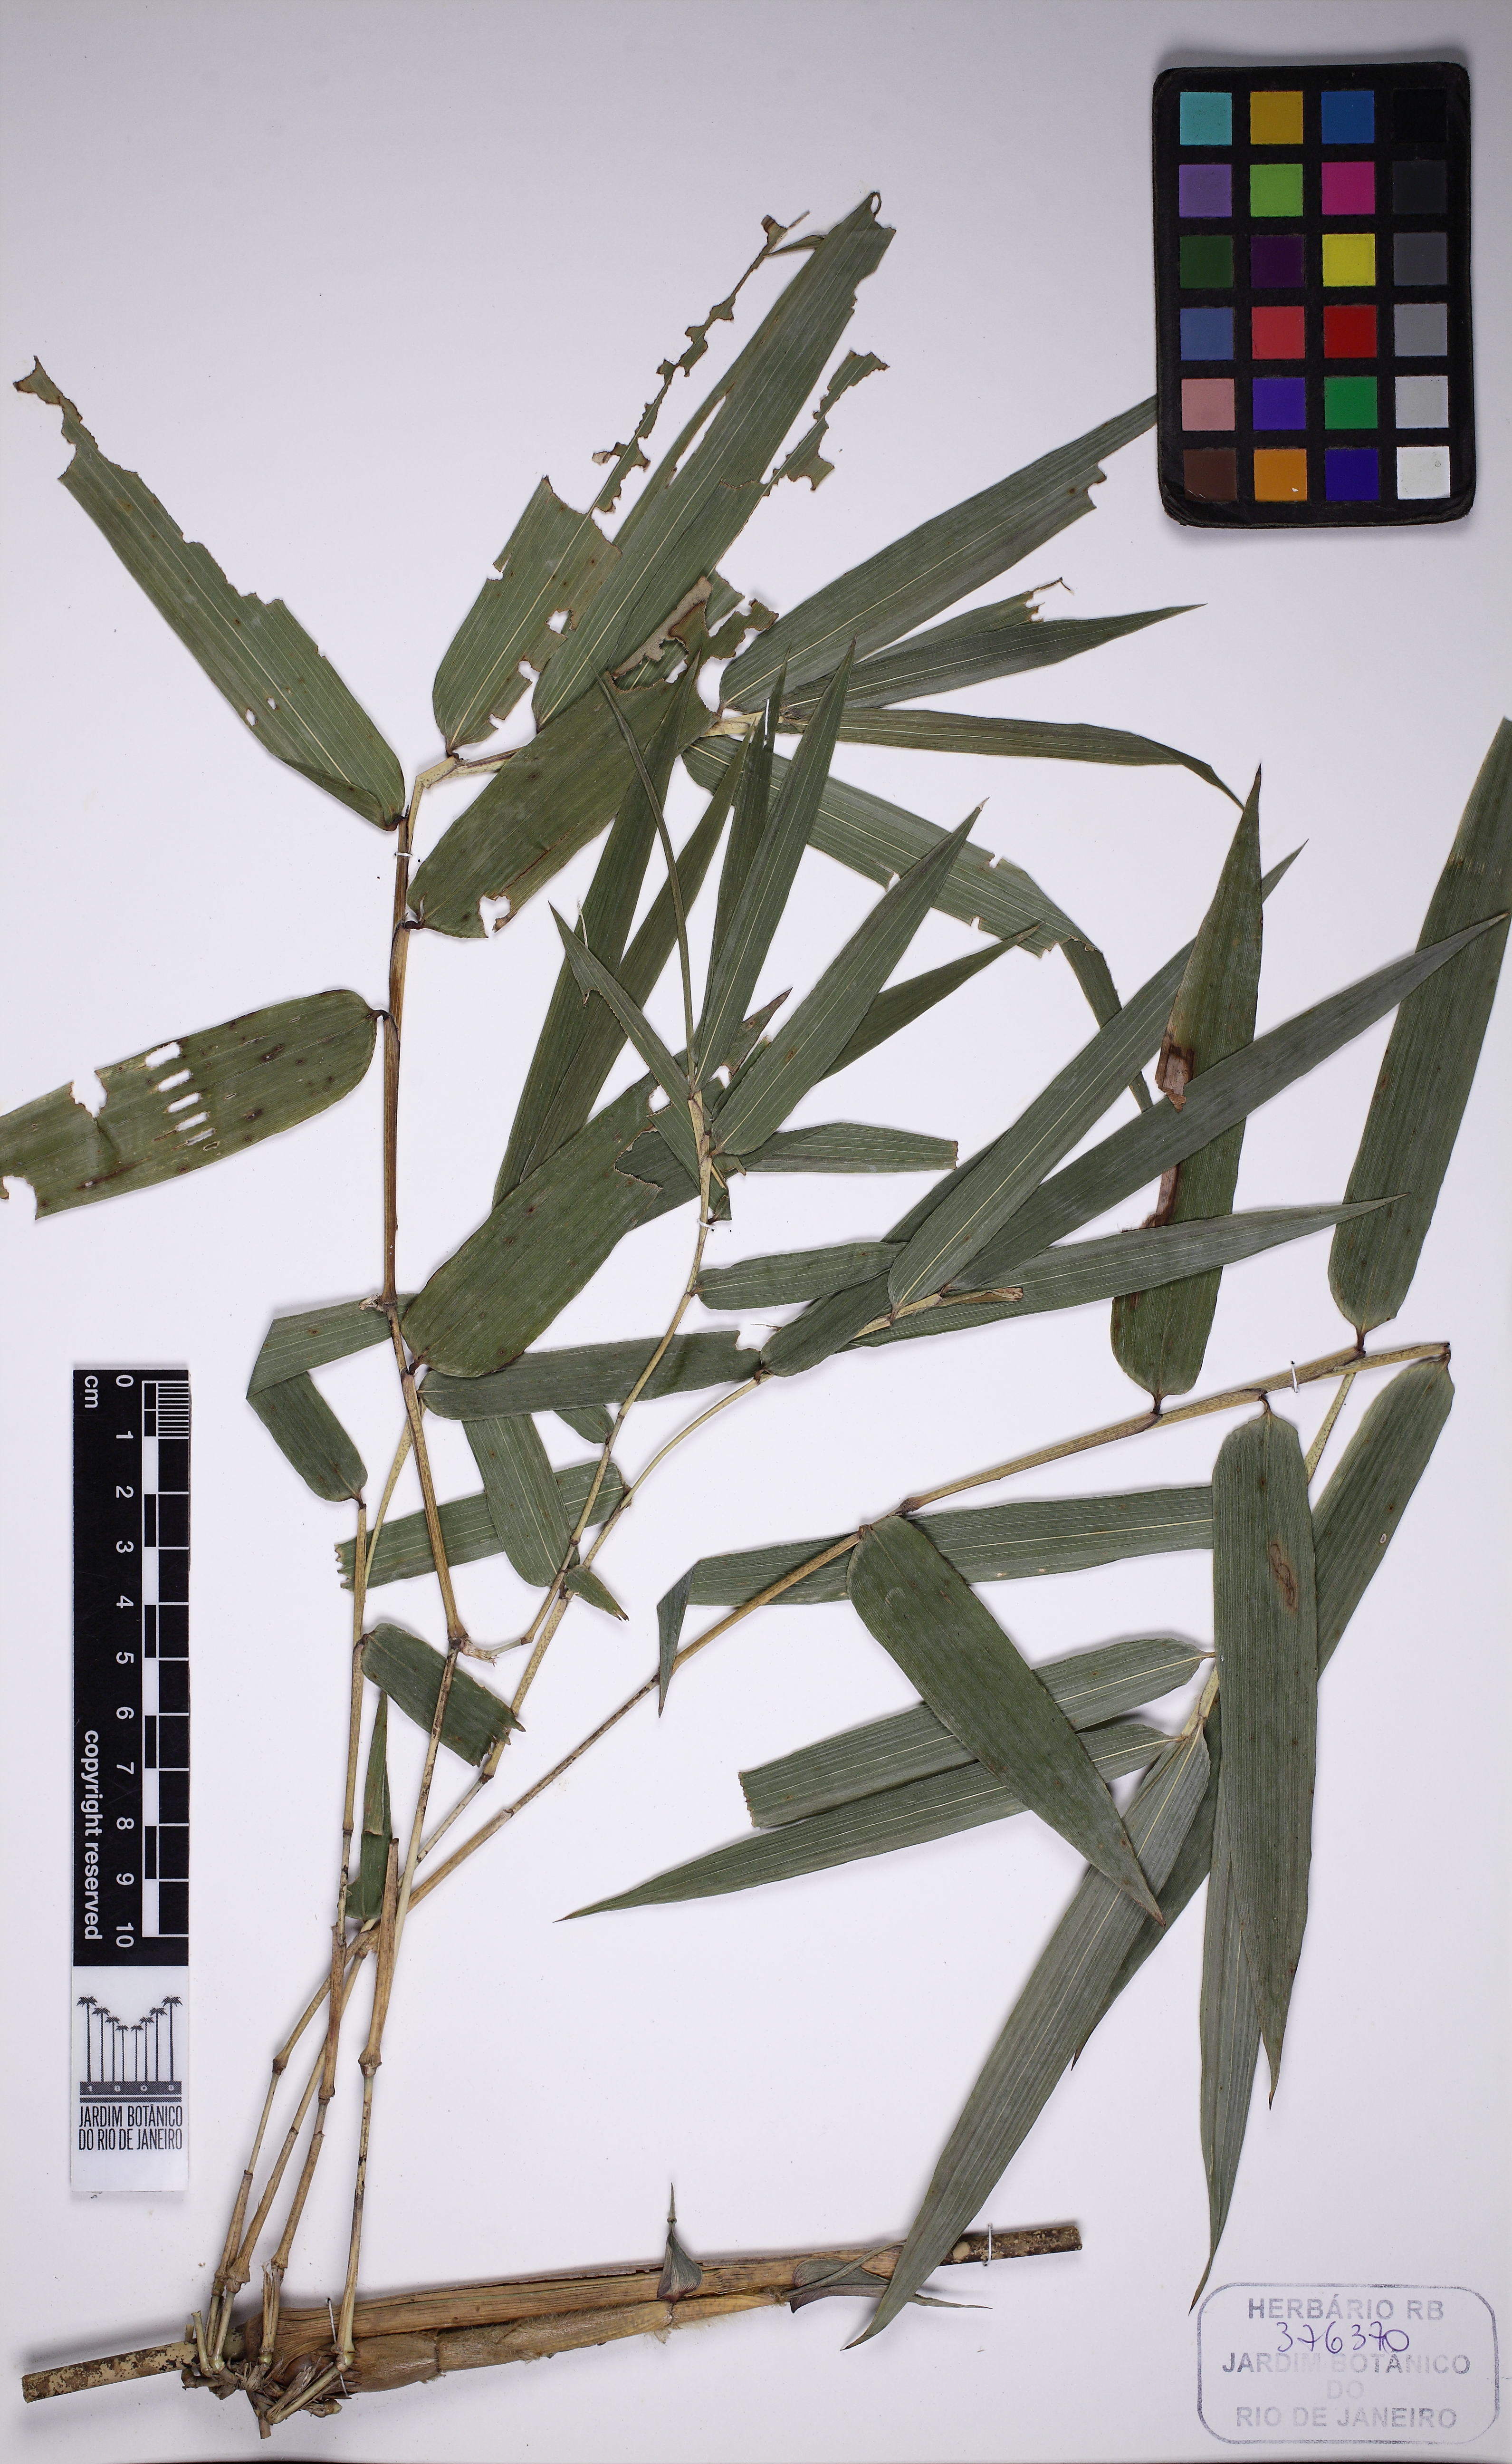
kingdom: Plantae
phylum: Tracheophyta
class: Liliopsida
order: Poales
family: Poaceae
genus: Chusquea
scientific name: Chusquea tenella
